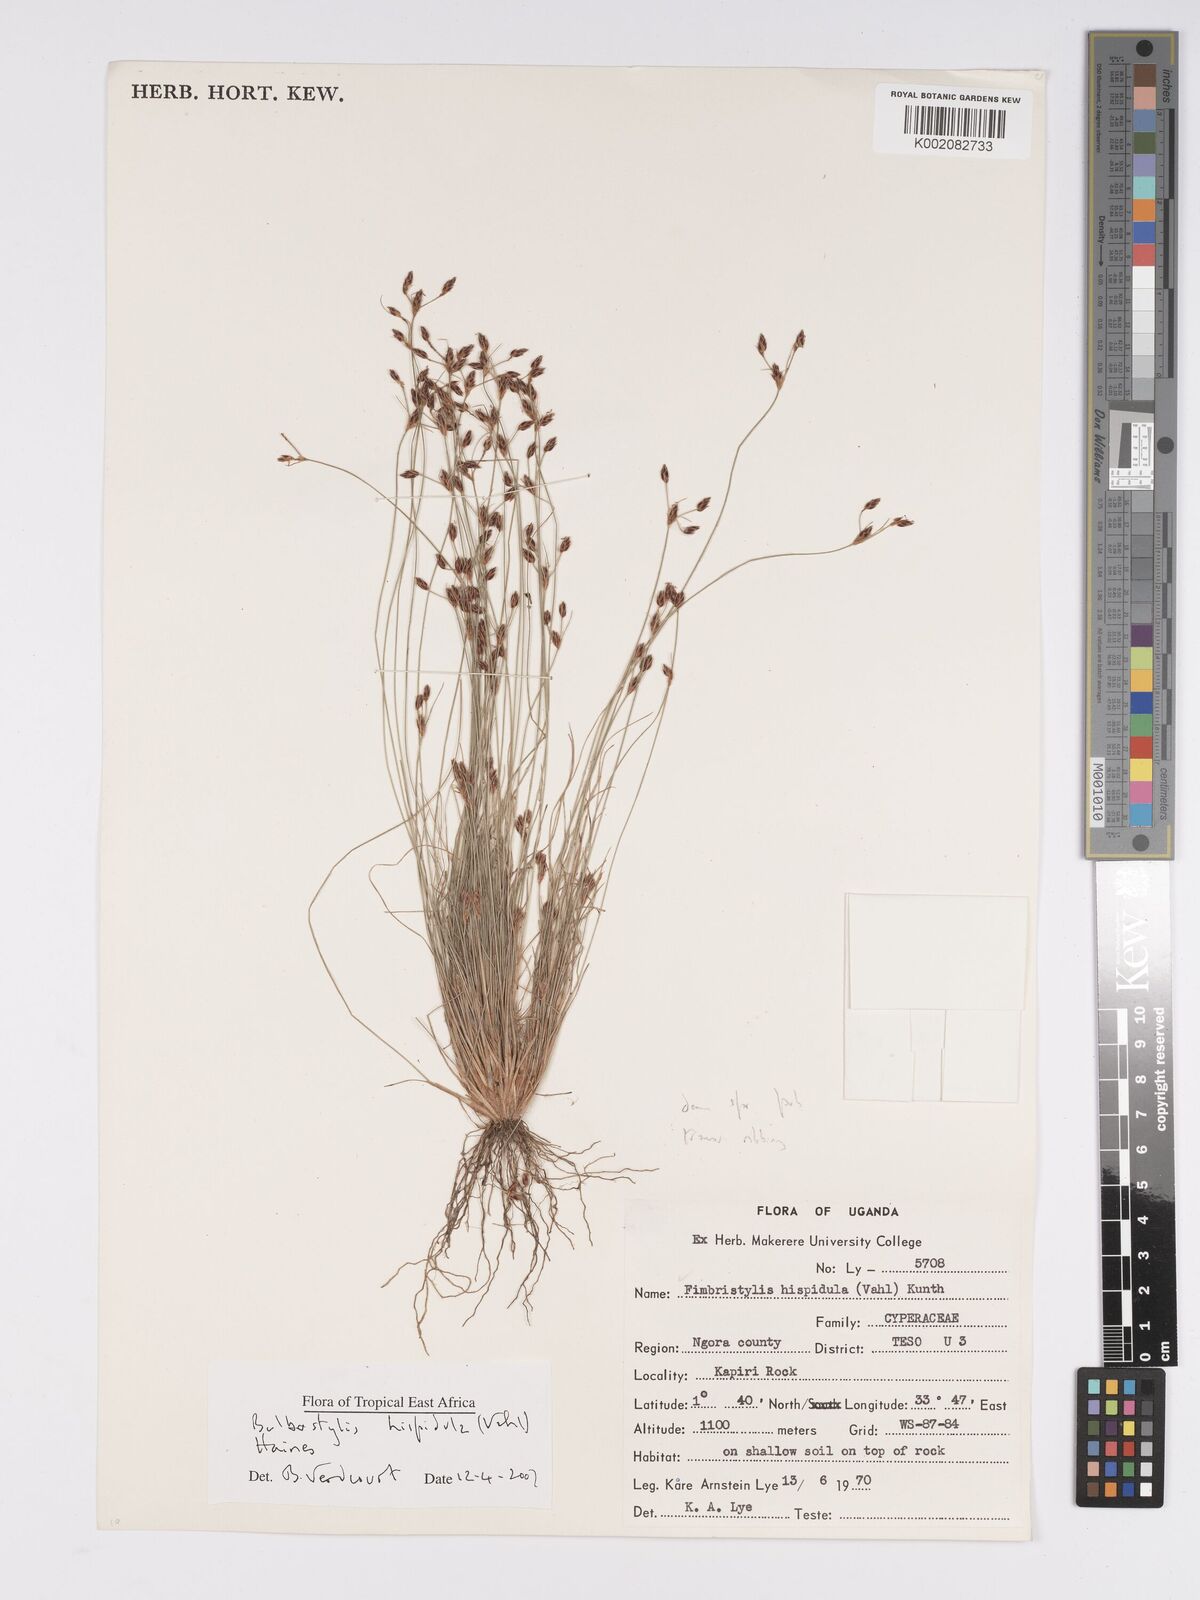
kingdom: Plantae
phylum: Tracheophyta
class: Magnoliopsida
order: Asterales
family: Asteraceae
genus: Bulbostylis
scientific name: Bulbostylis
